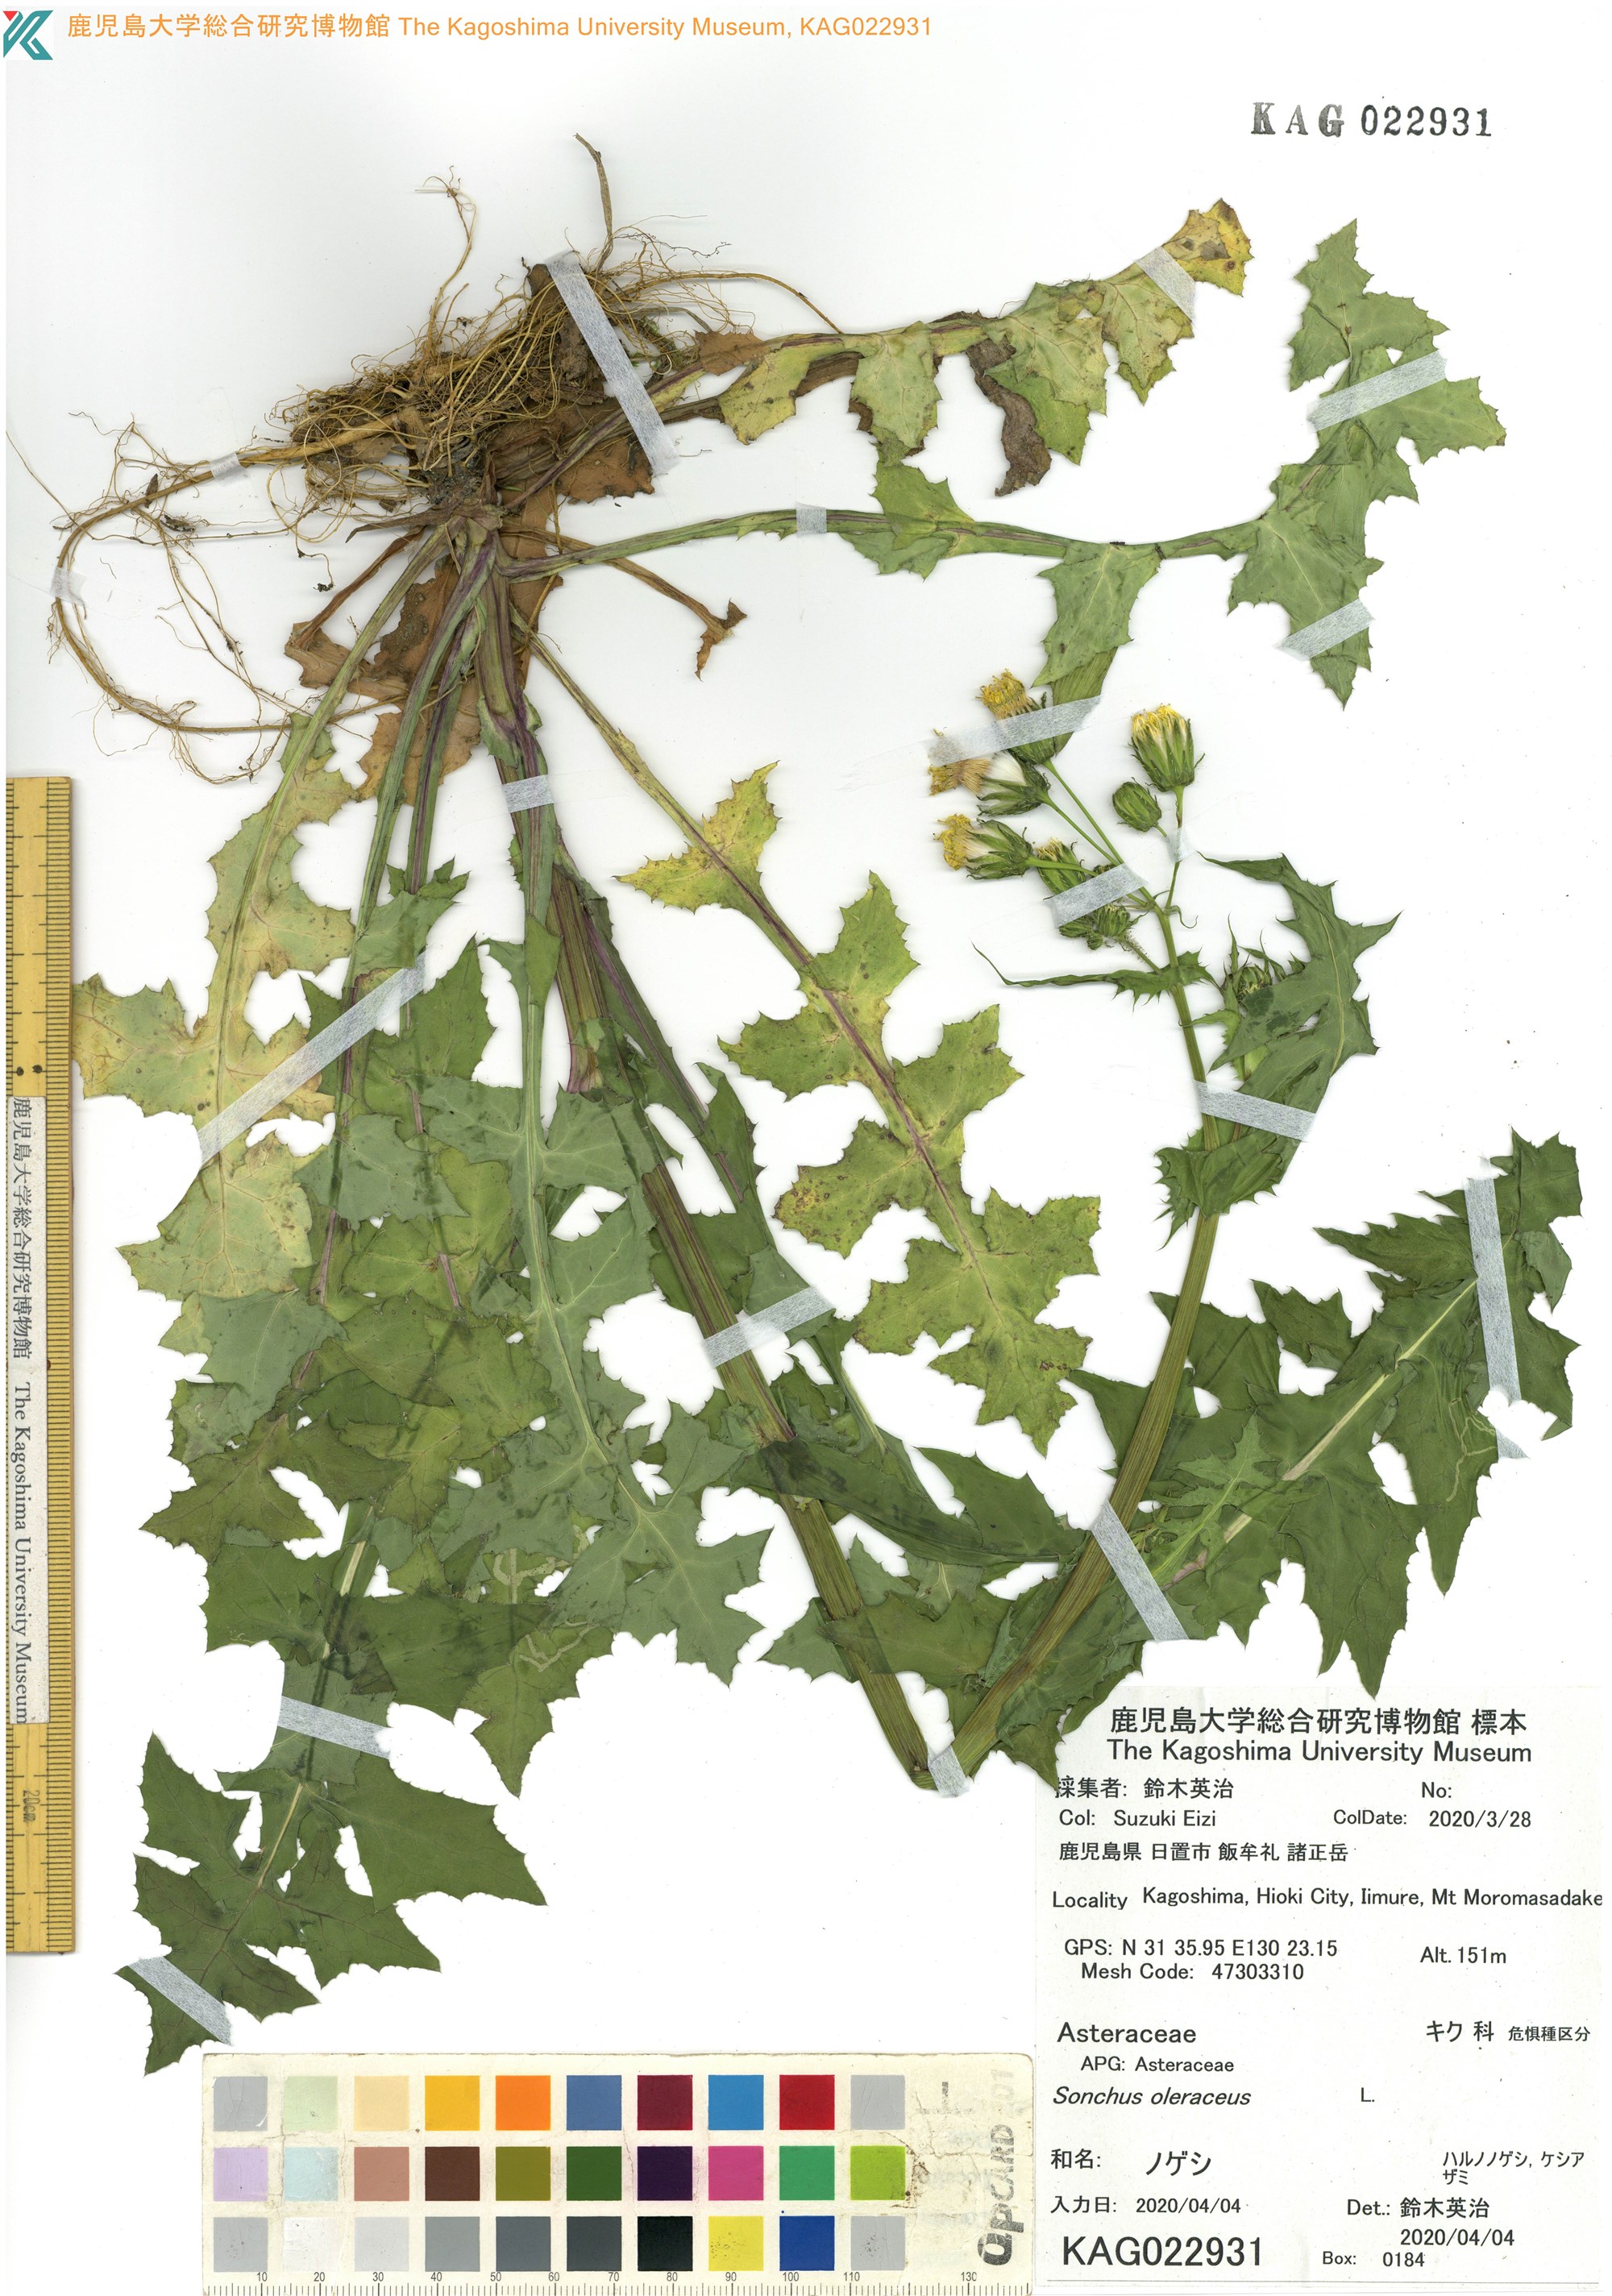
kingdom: Plantae
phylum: Tracheophyta
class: Magnoliopsida
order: Asterales
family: Asteraceae
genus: Sonchus
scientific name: Sonchus oleraceus
